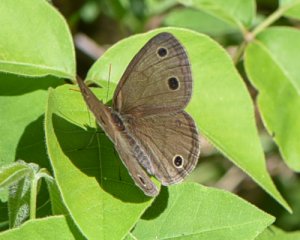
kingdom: Animalia
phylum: Arthropoda
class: Insecta
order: Lepidoptera
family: Nymphalidae
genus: Euptychia
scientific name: Euptychia cymela
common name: Little Wood Satyr
